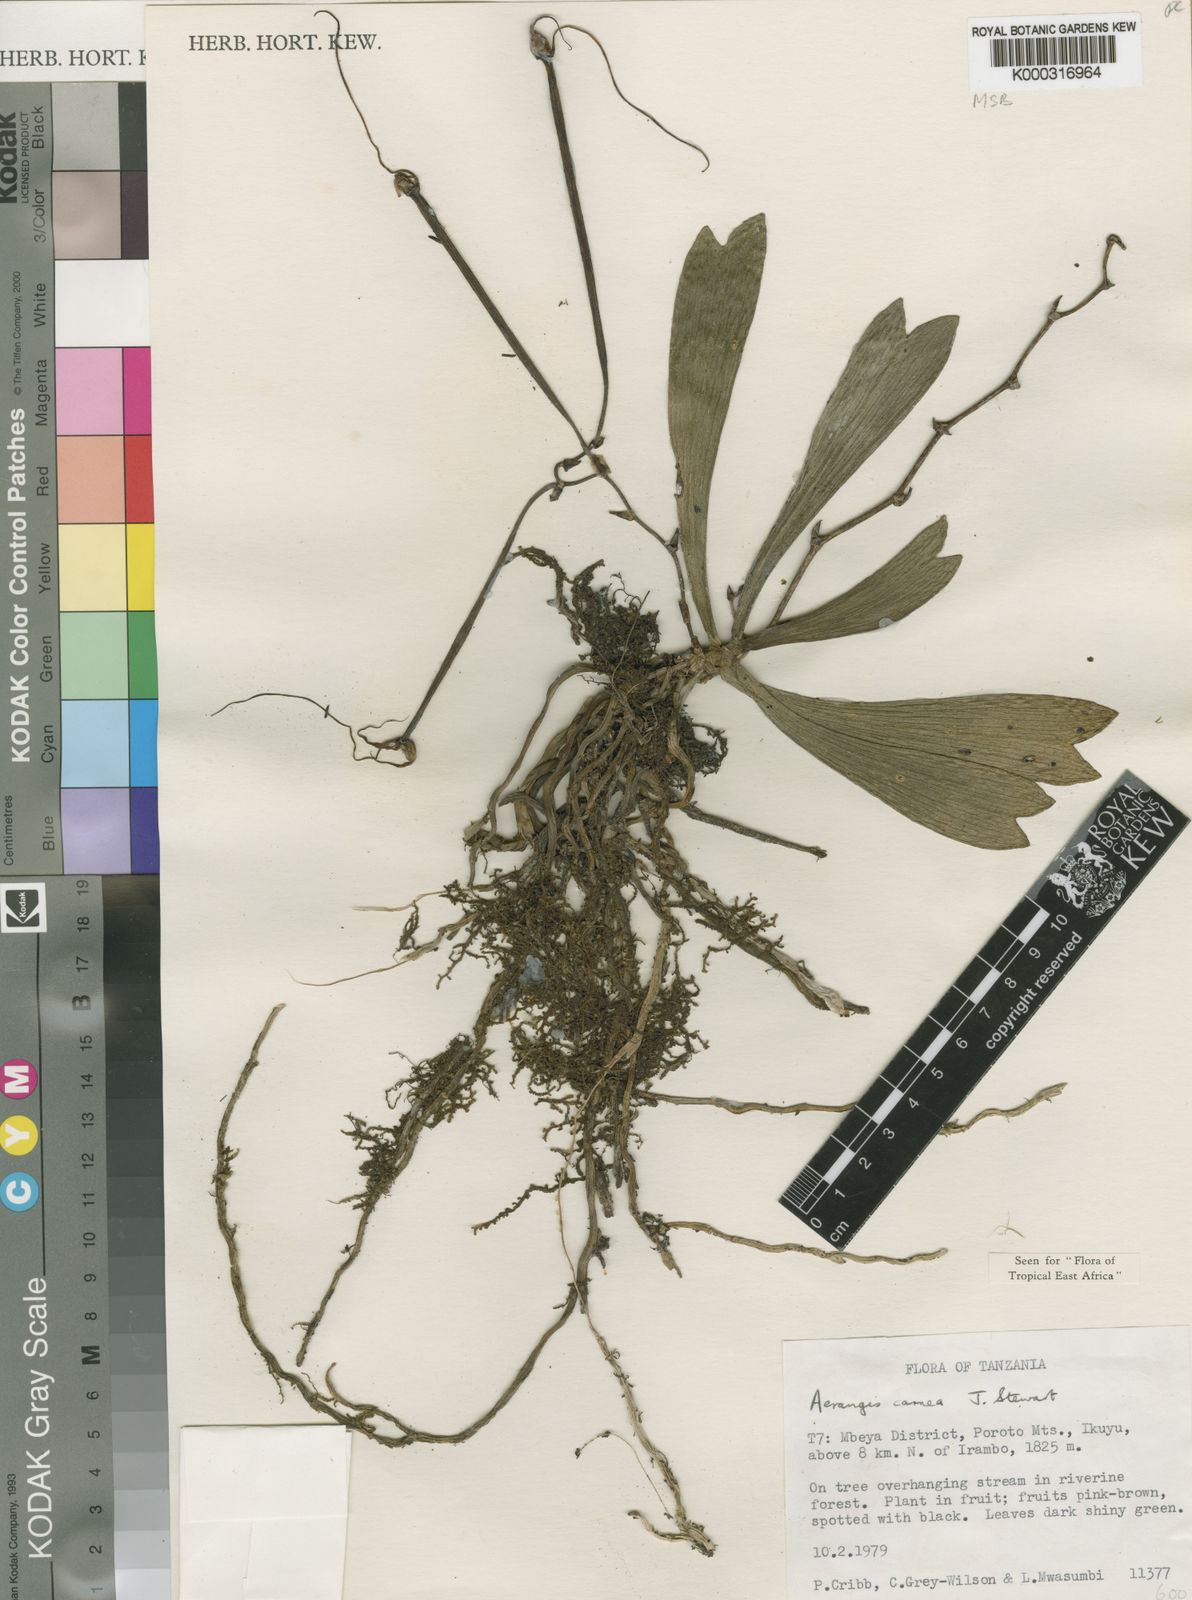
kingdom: Plantae
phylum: Tracheophyta
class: Liliopsida
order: Asparagales
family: Orchidaceae
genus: Aerangis
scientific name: Aerangis carnea
